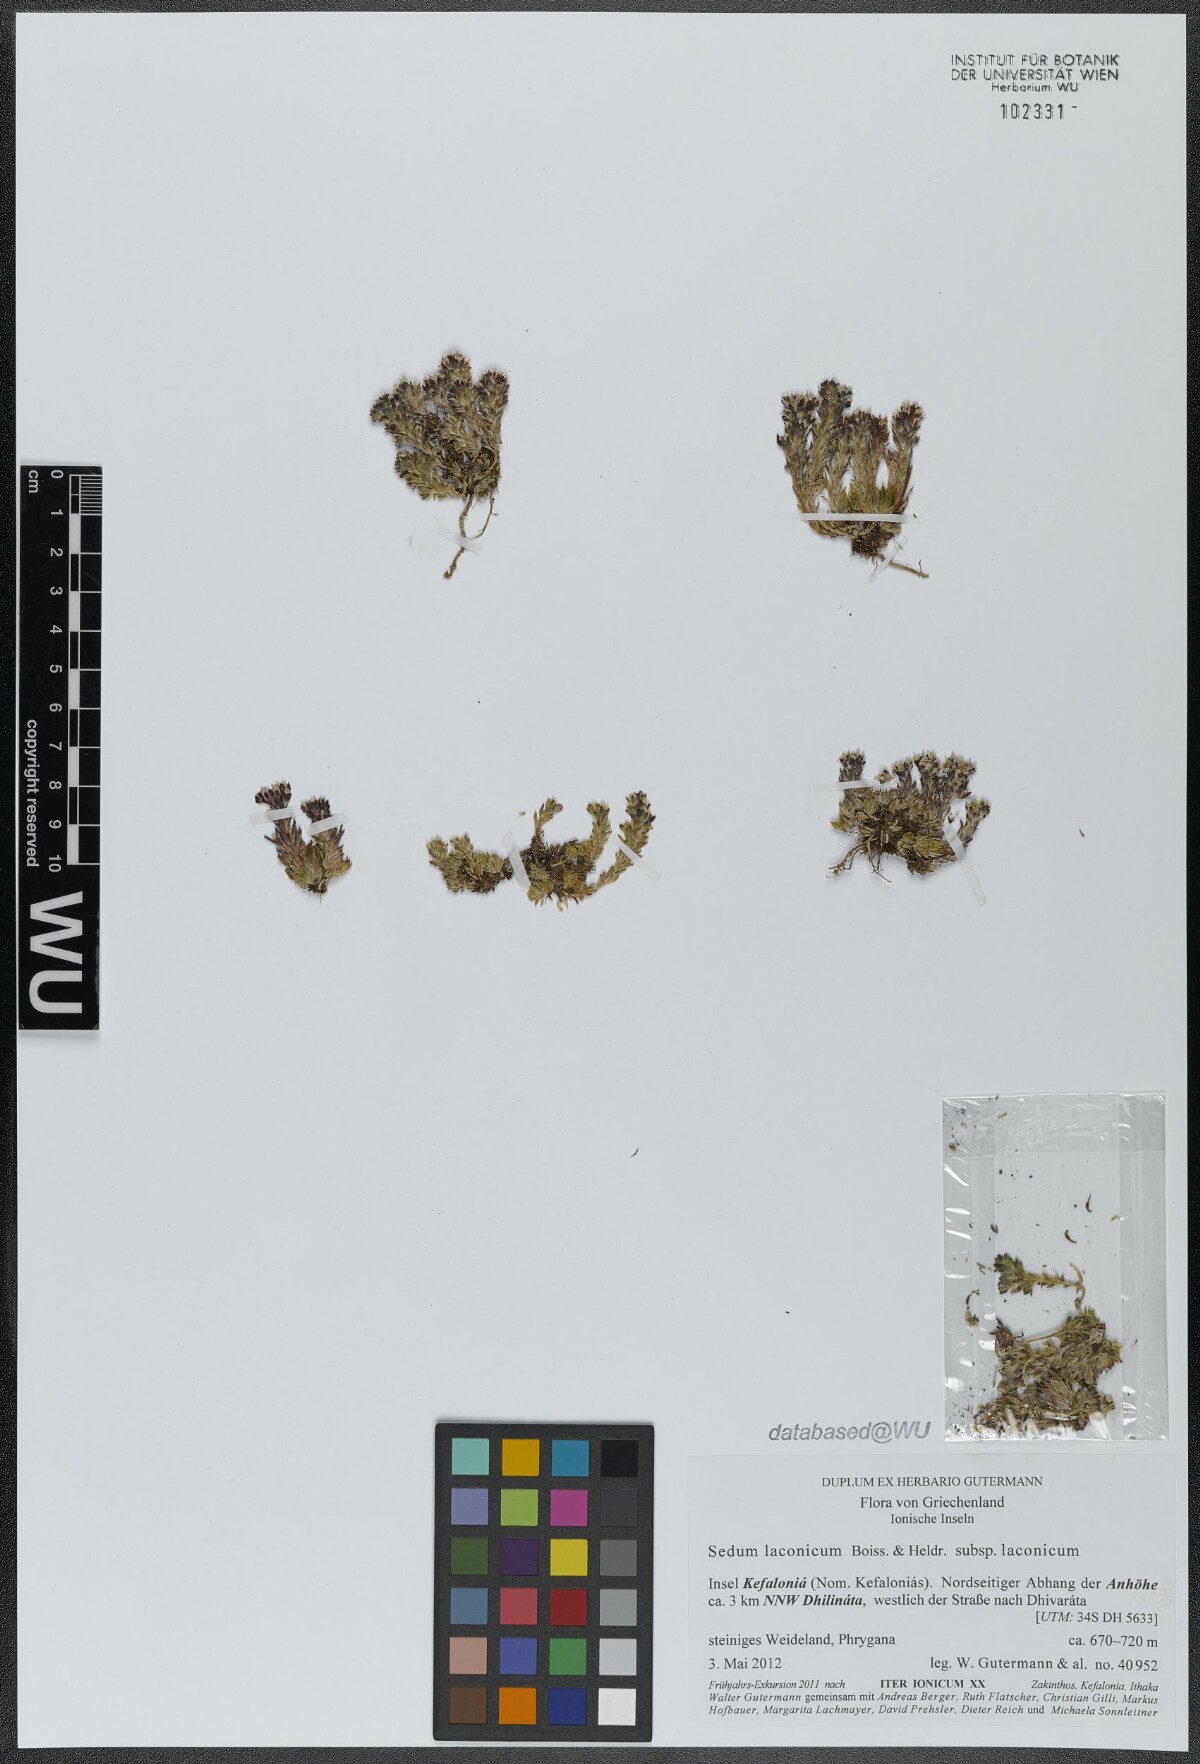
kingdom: Plantae
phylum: Tracheophyta
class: Magnoliopsida
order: Saxifragales
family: Crassulaceae
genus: Sedum
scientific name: Sedum laconicum
